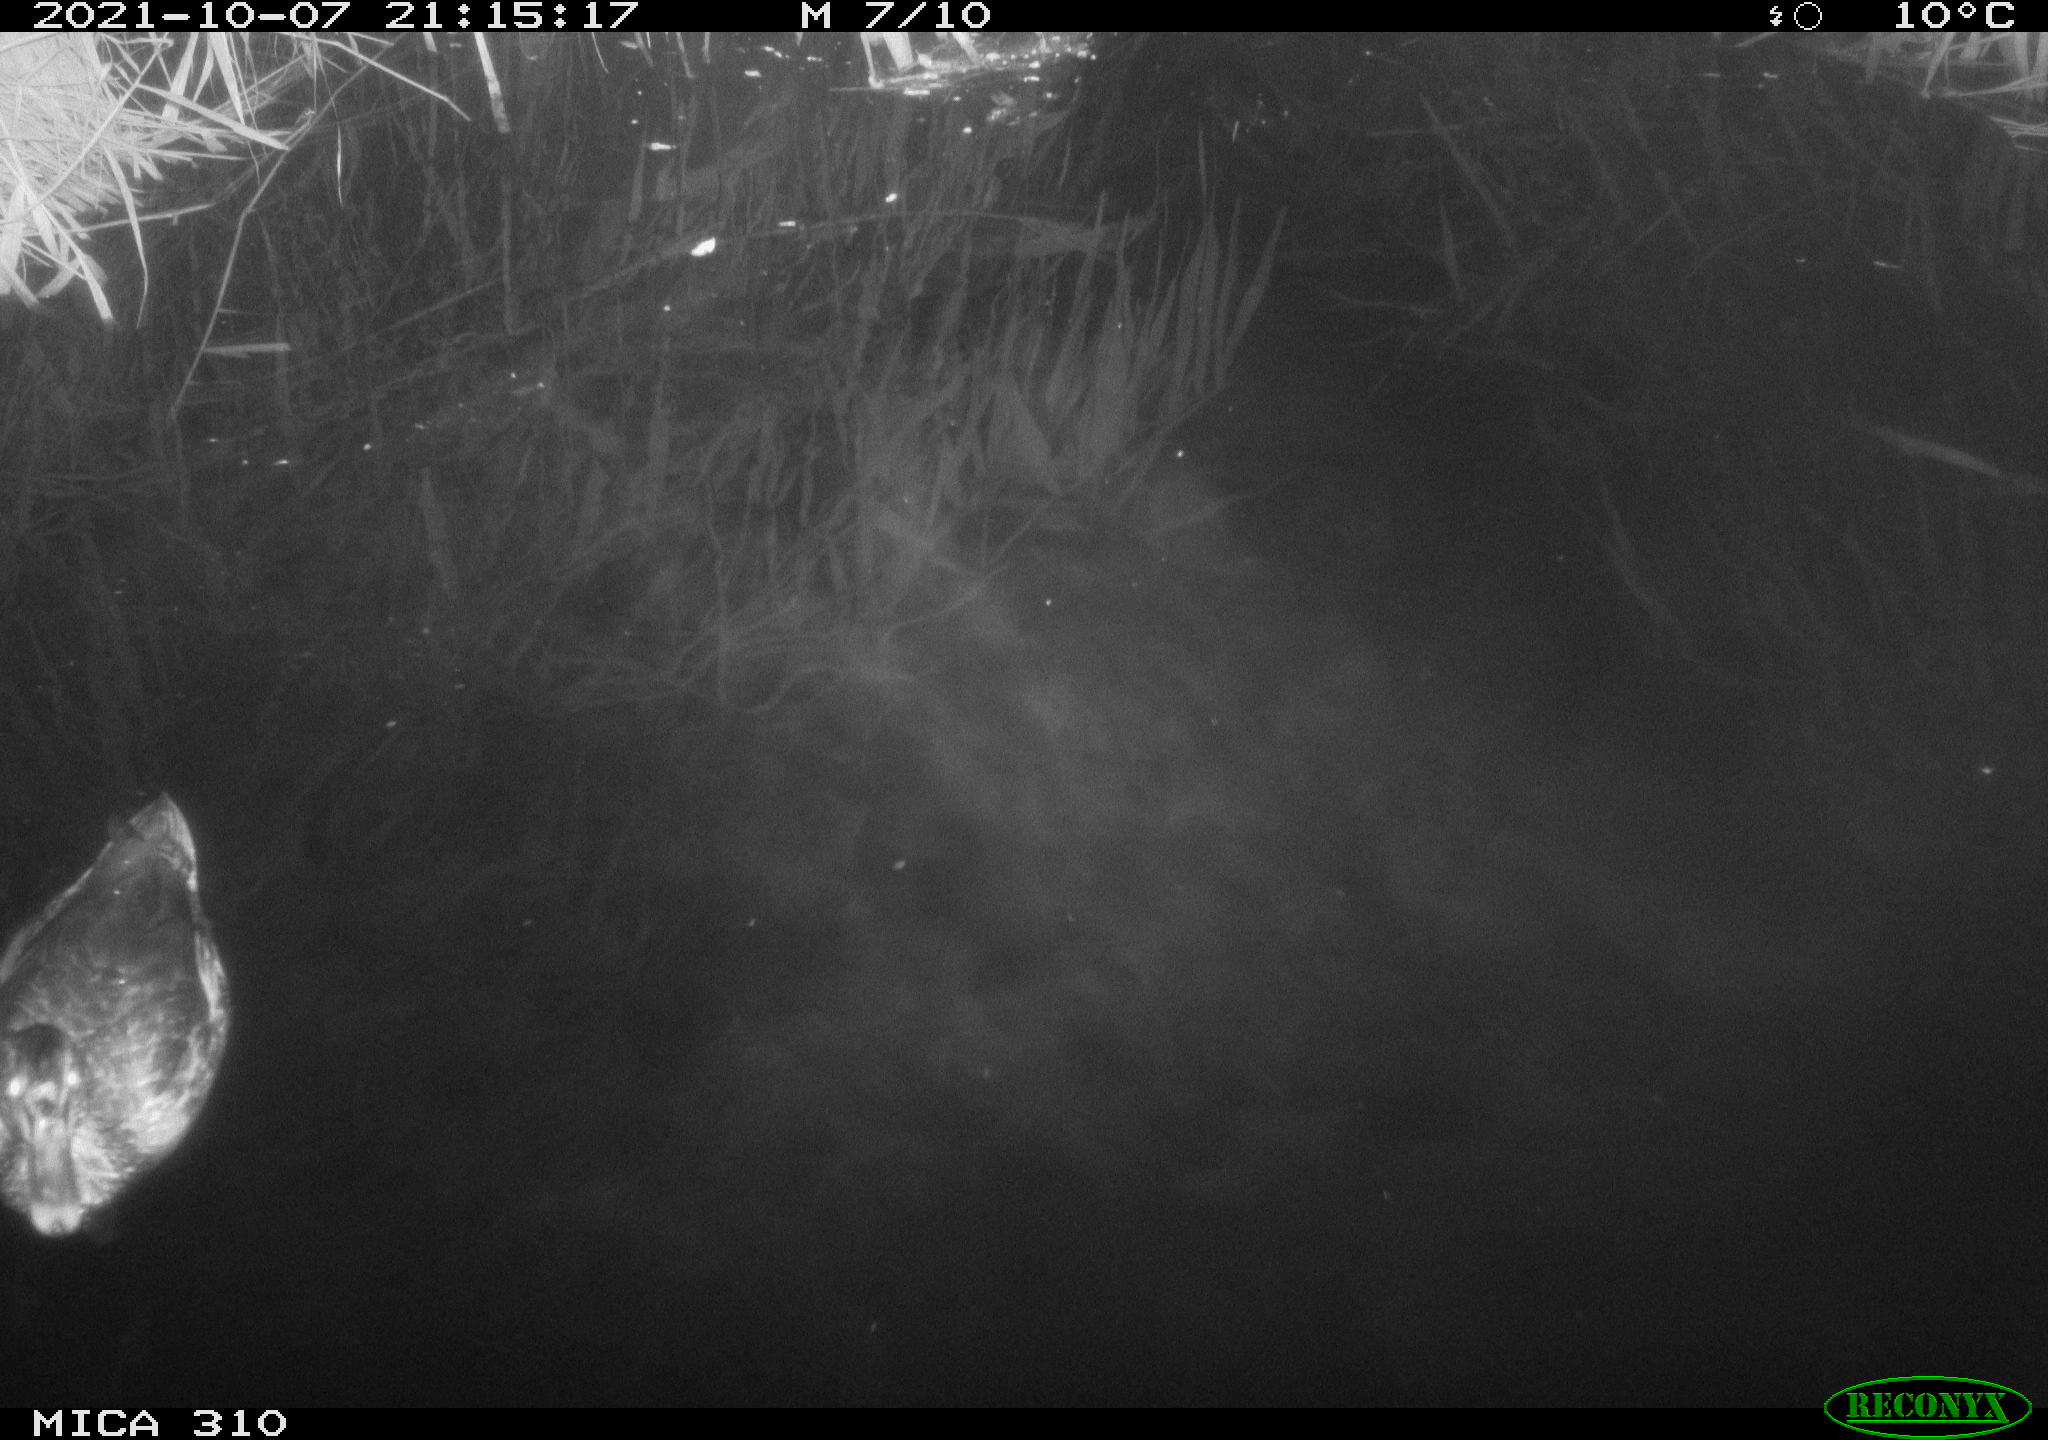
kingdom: Animalia
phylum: Chordata
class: Aves
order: Anseriformes
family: Anatidae
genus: Anas
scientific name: Anas platyrhynchos
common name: Mallard
